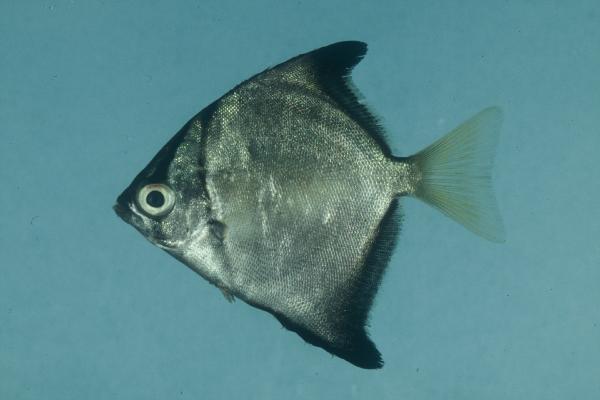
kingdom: Animalia
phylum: Chordata
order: Perciformes
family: Monodactylidae
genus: Monodactylus
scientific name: Monodactylus argenteus
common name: Silver moony
